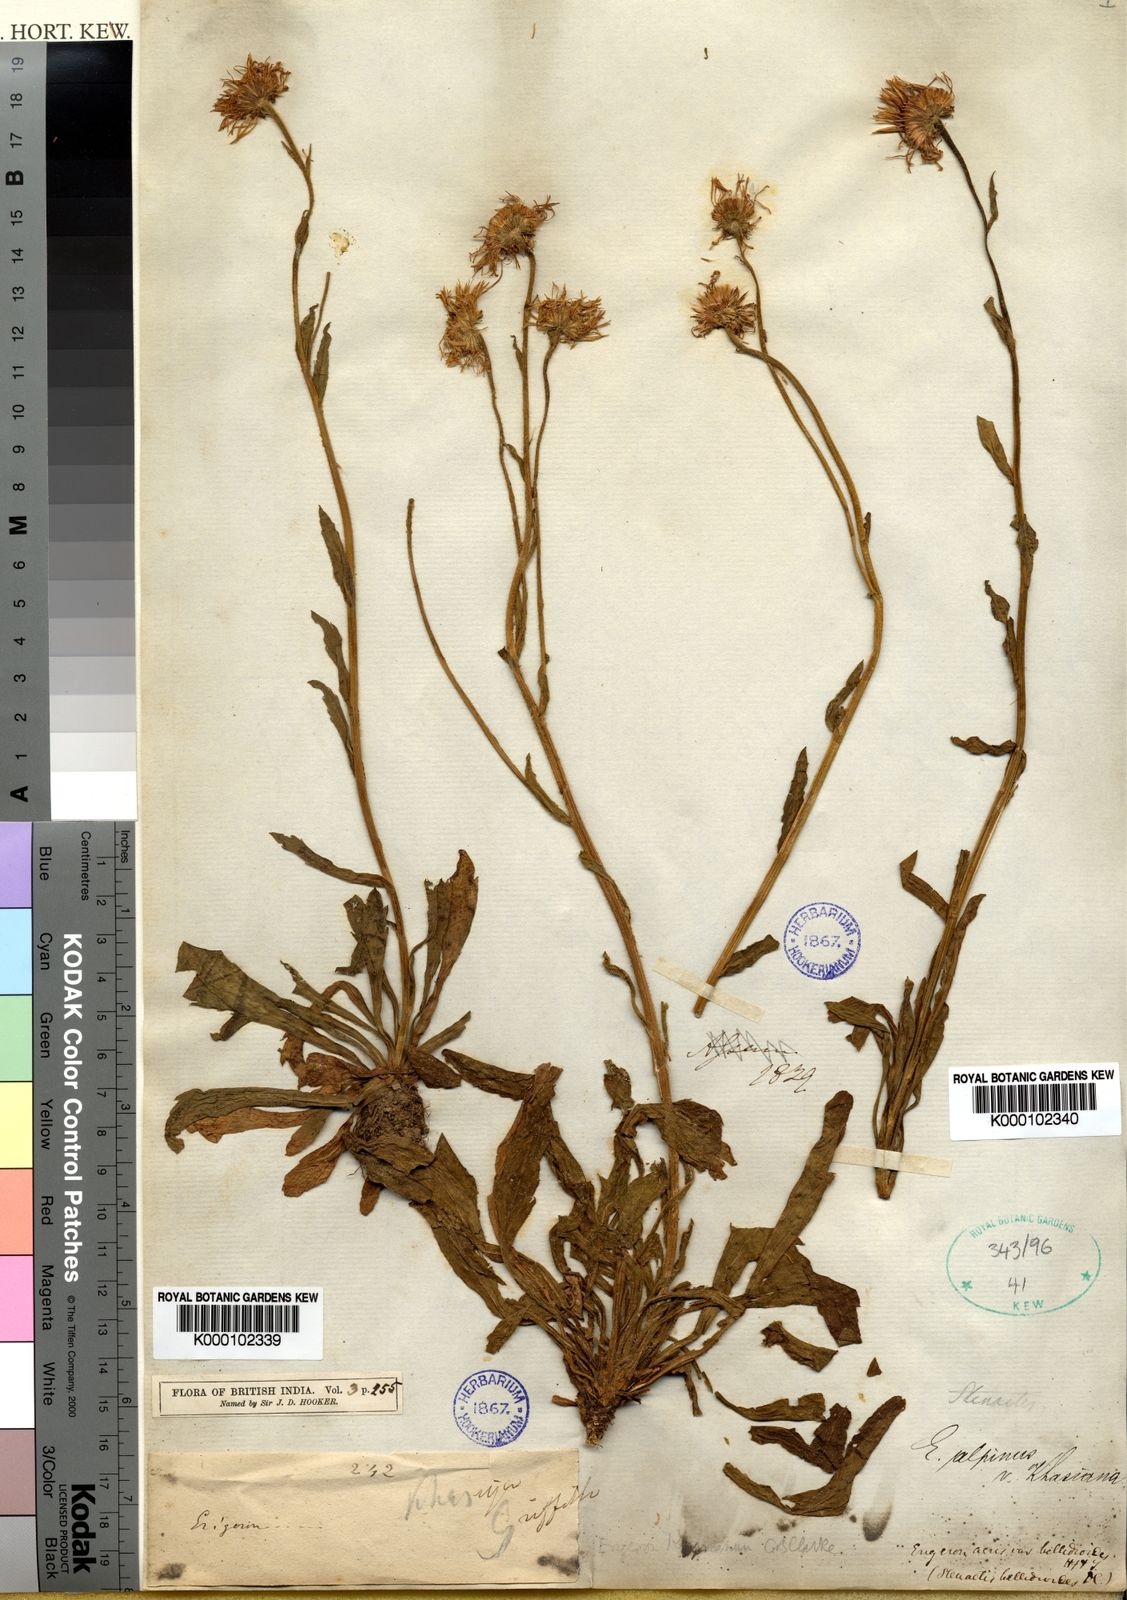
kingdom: Plantae
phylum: Tracheophyta
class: Magnoliopsida
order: Asterales
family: Asteraceae
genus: Erigeron
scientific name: Erigeron alpinus
